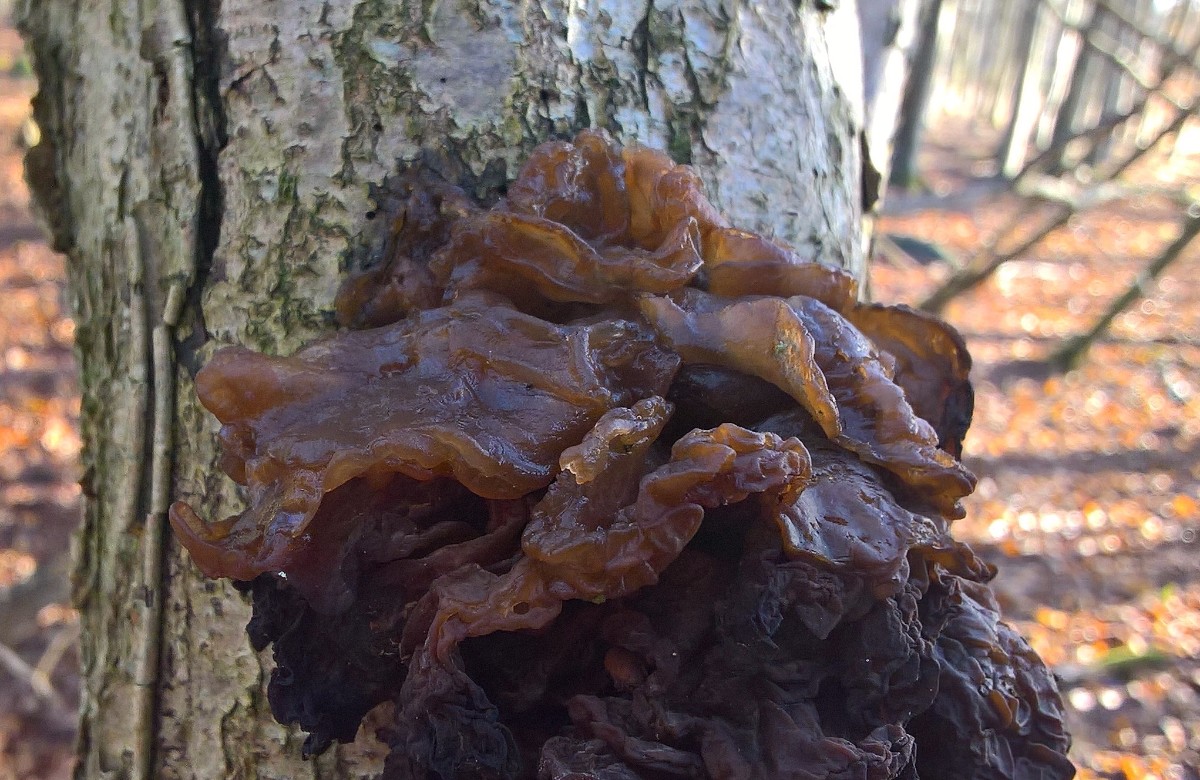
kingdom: Fungi
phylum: Basidiomycota
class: Tremellomycetes
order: Tremellales
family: Tremellaceae
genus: Phaeotremella
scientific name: Phaeotremella frondosa
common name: kæmpe-bævresvamp
